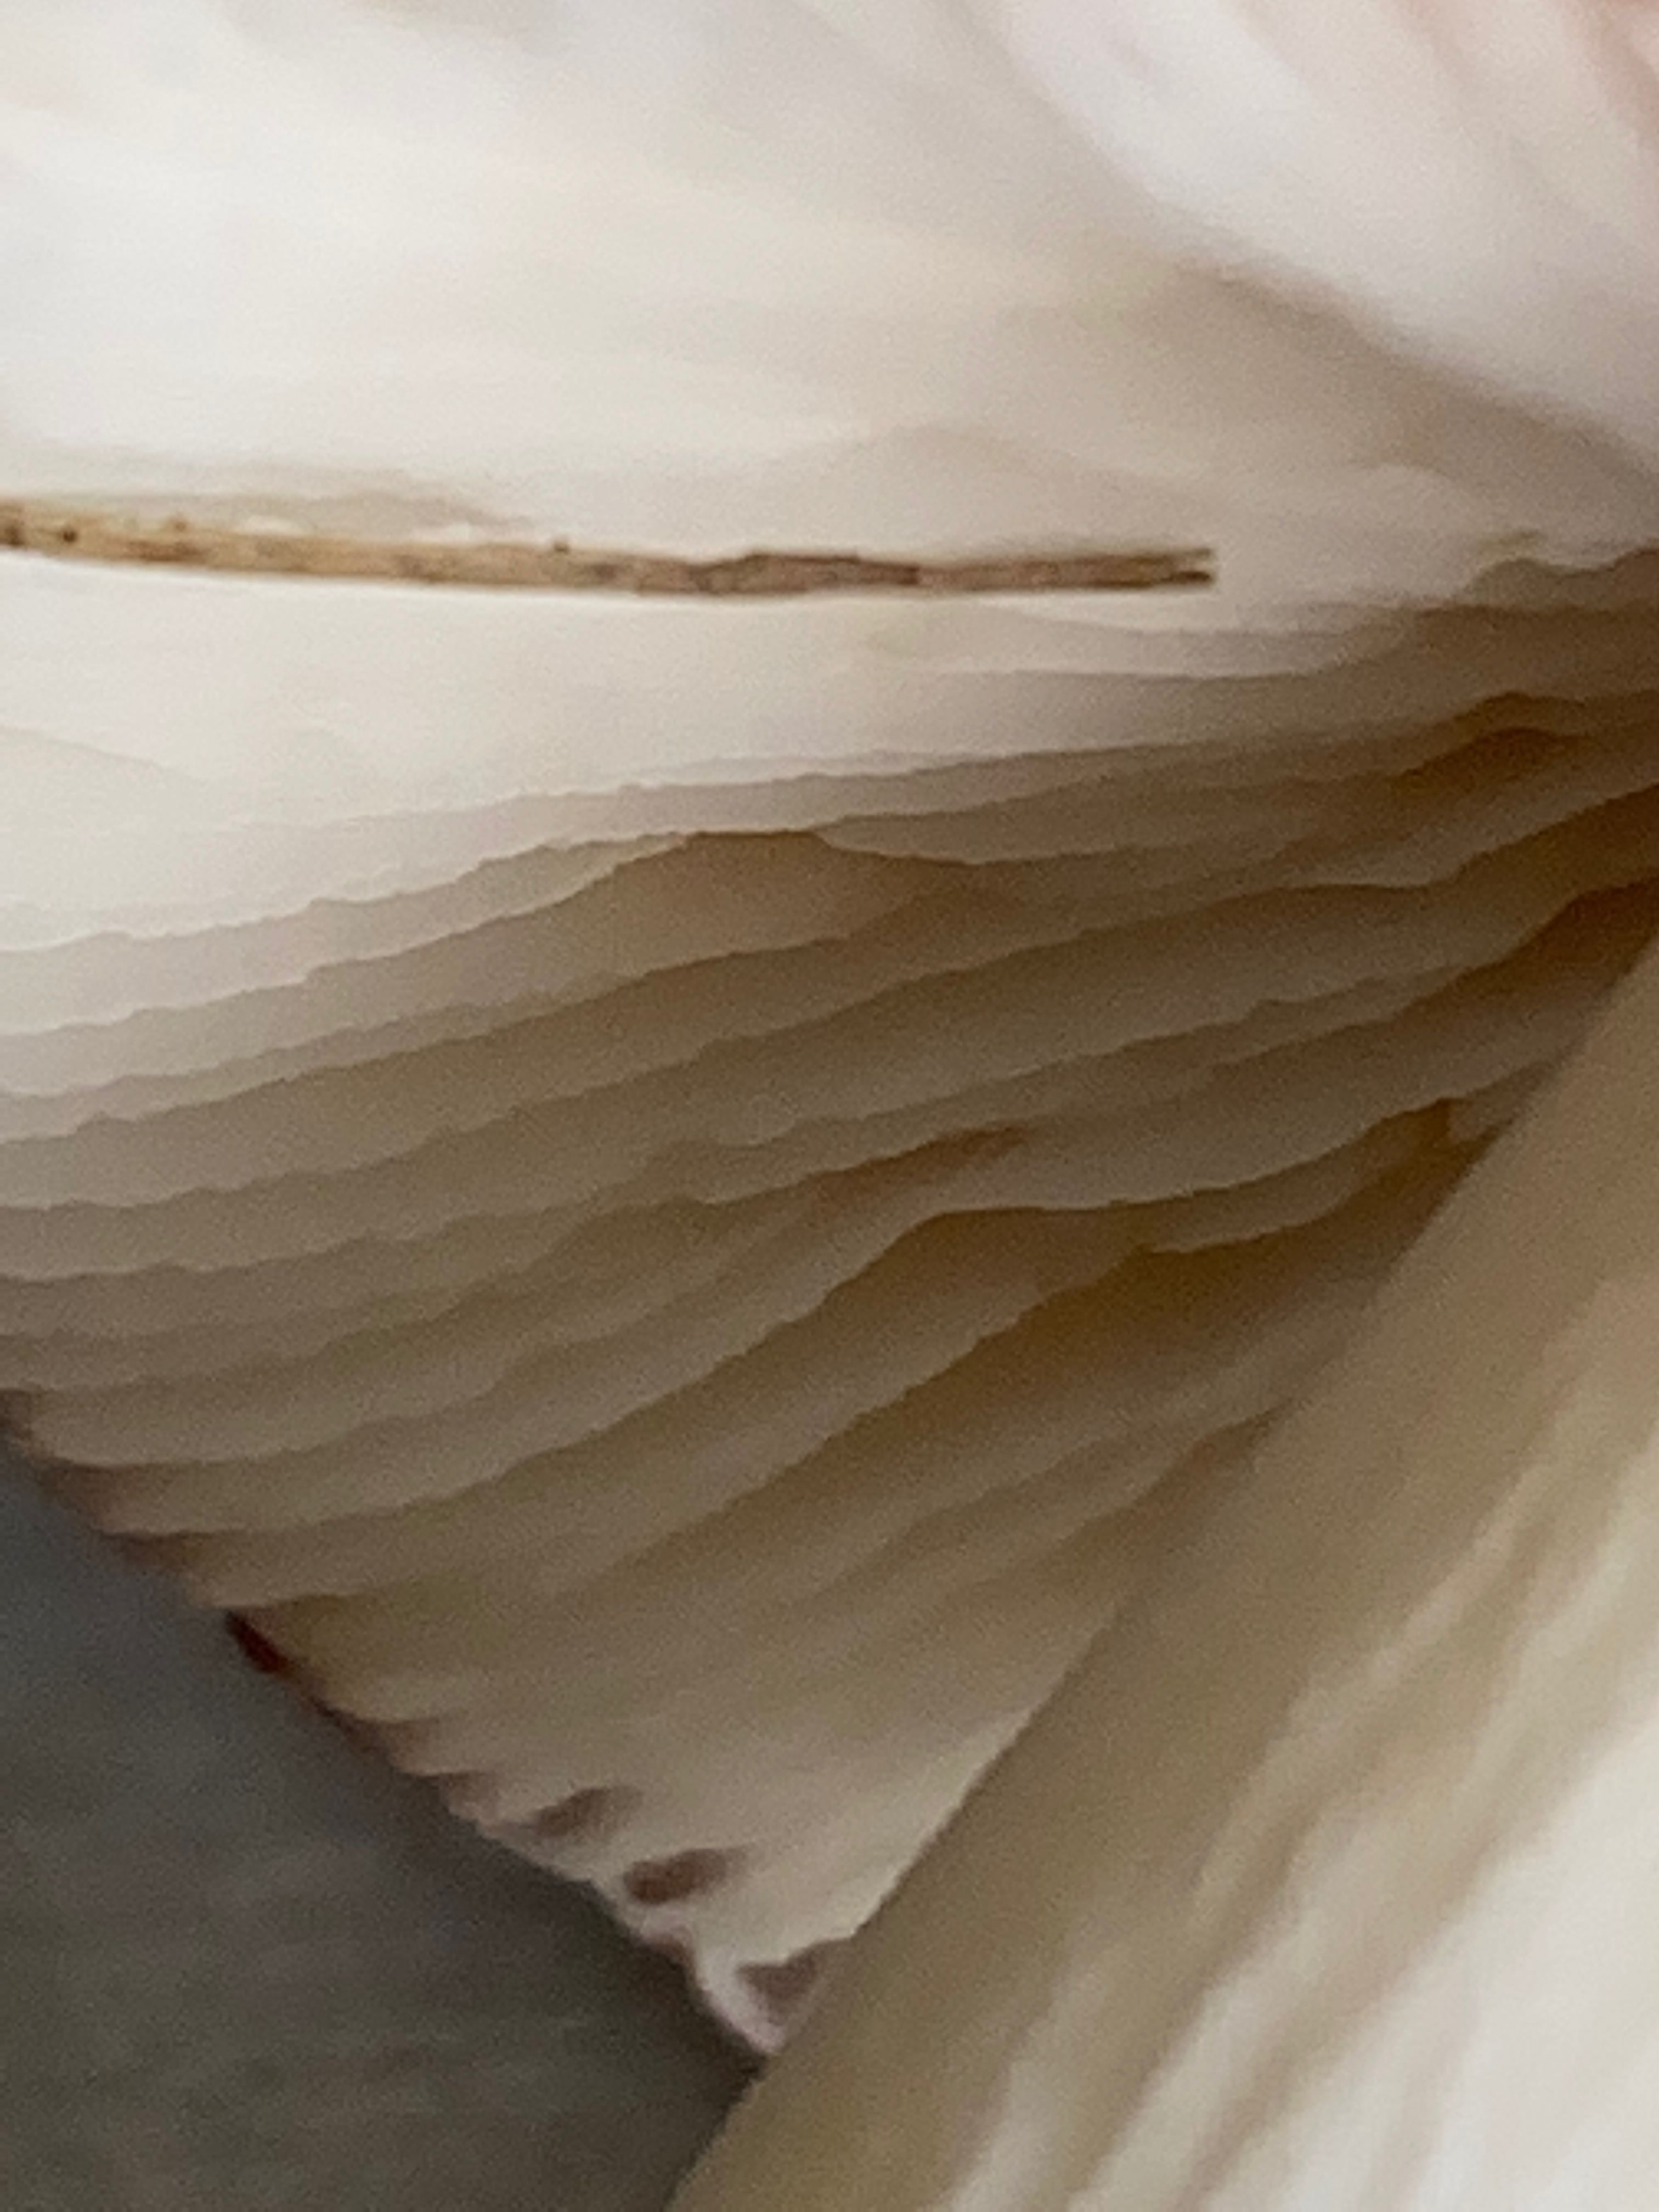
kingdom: Fungi
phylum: Basidiomycota
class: Agaricomycetes
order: Russulales
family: Russulaceae
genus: Russula
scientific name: Russula fragilis
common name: savbladet skørhat
